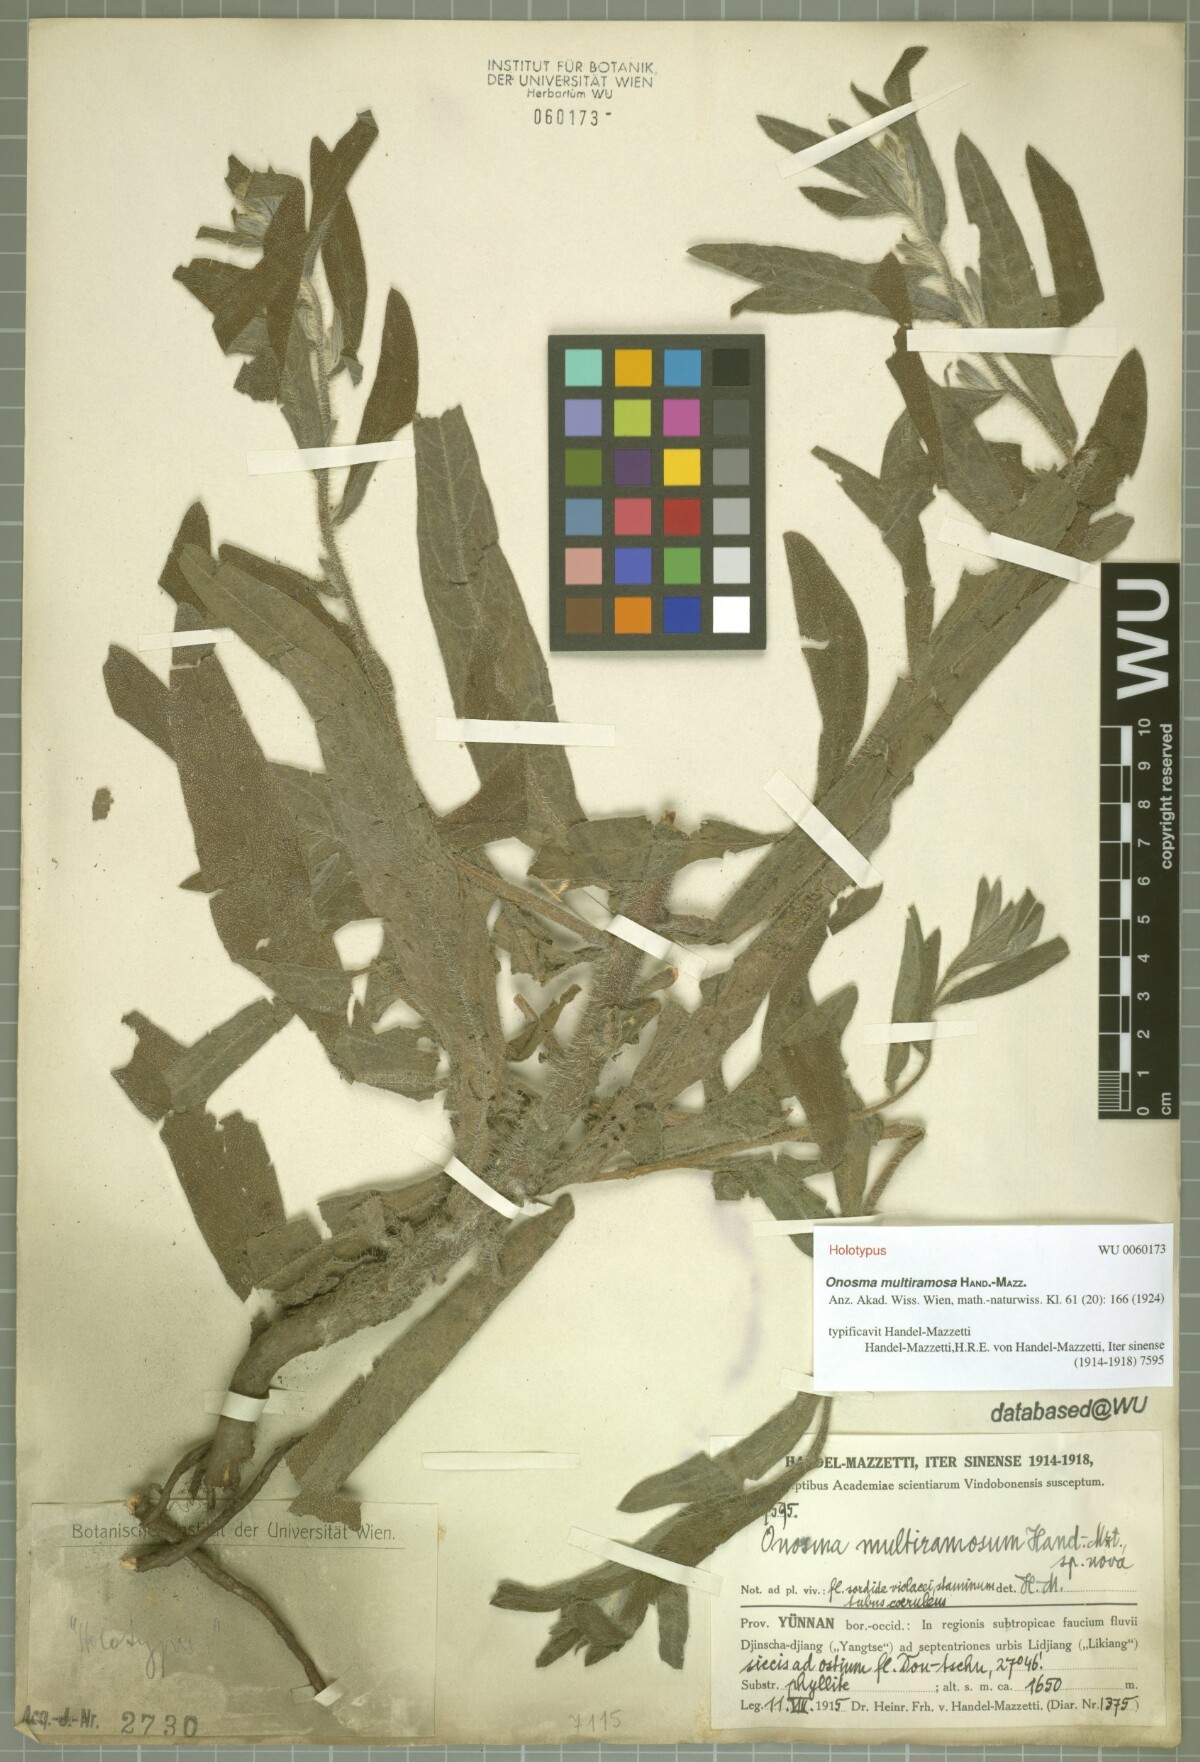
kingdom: Plantae
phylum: Tracheophyta
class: Magnoliopsida
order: Boraginales
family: Boraginaceae
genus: Maharanga
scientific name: Maharanga multiramosa
